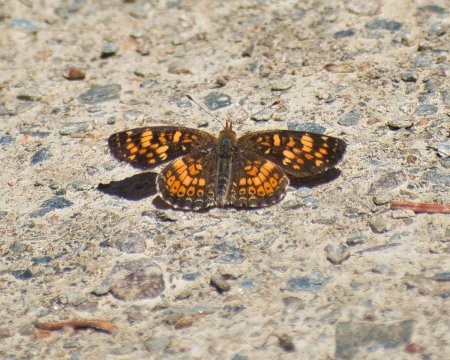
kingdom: Animalia
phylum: Arthropoda
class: Insecta
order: Lepidoptera
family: Nymphalidae
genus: Phyciodes
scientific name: Phyciodes tharos
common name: Field Crescent
